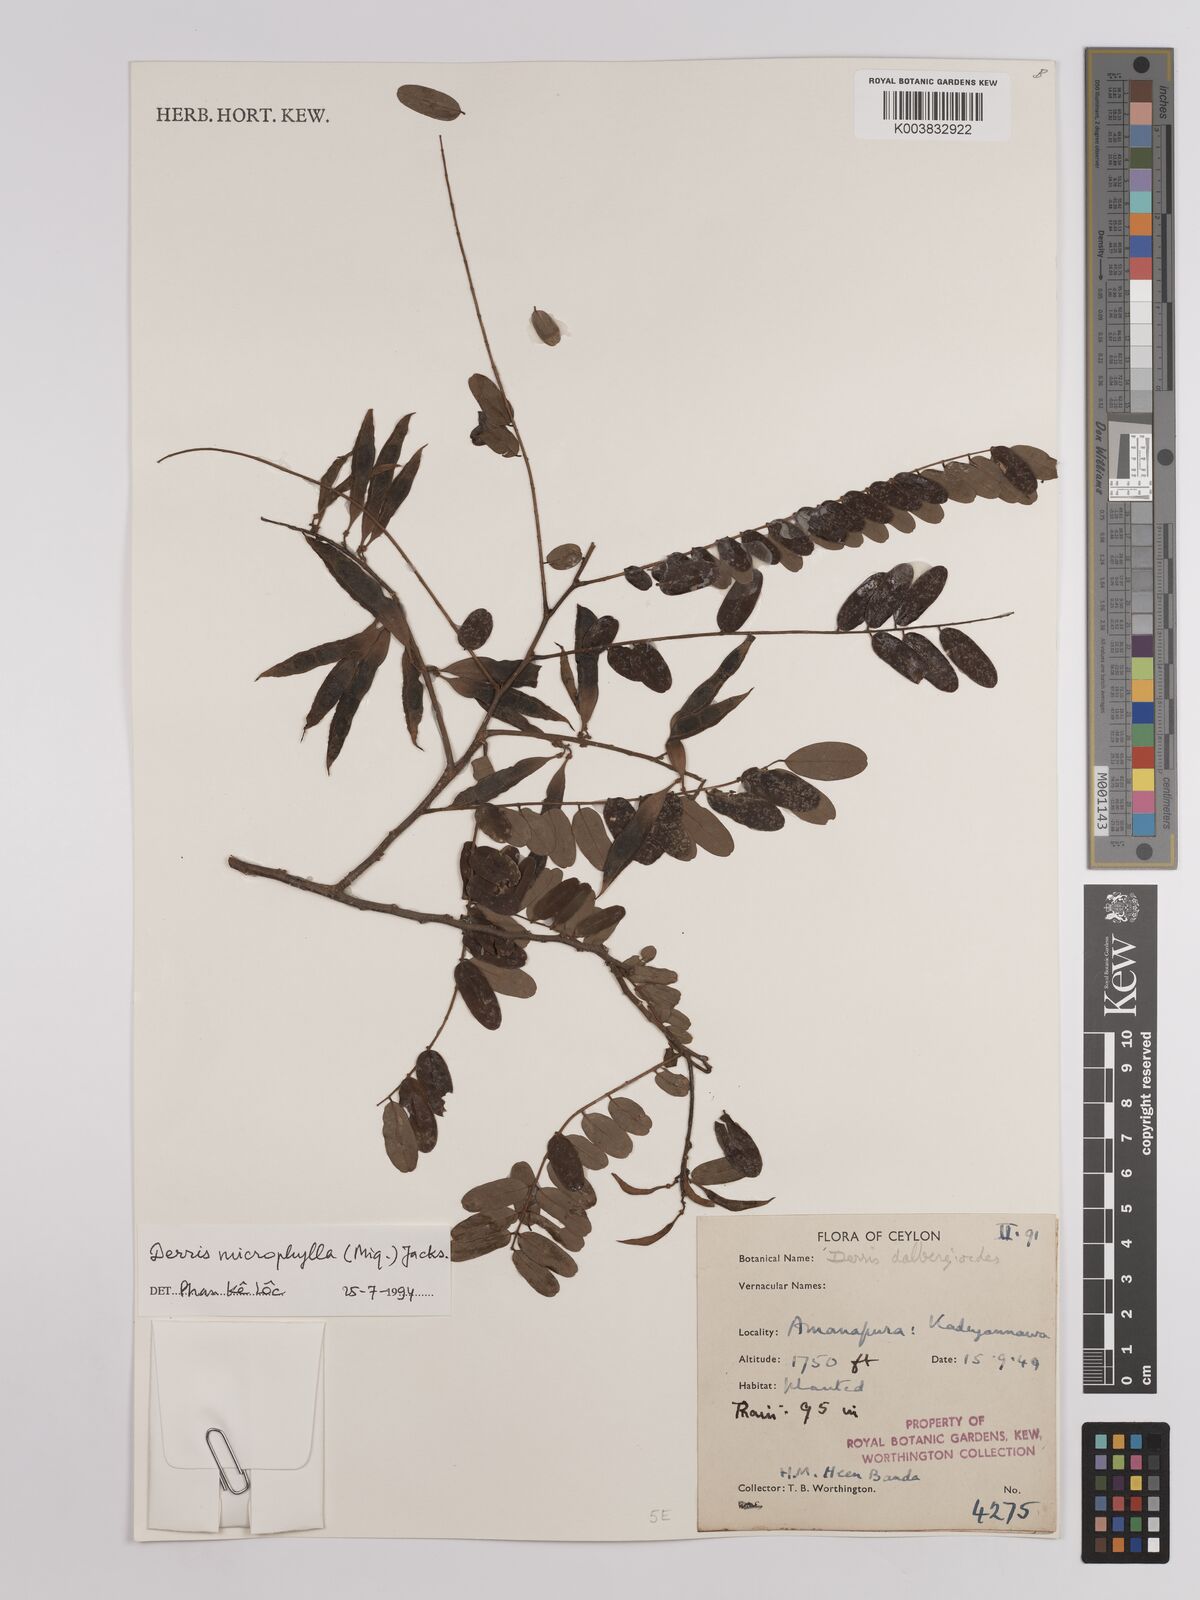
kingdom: Plantae
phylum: Tracheophyta
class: Magnoliopsida
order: Fabales
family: Fabaceae
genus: Brachypterum
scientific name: Brachypterum microphyllum
